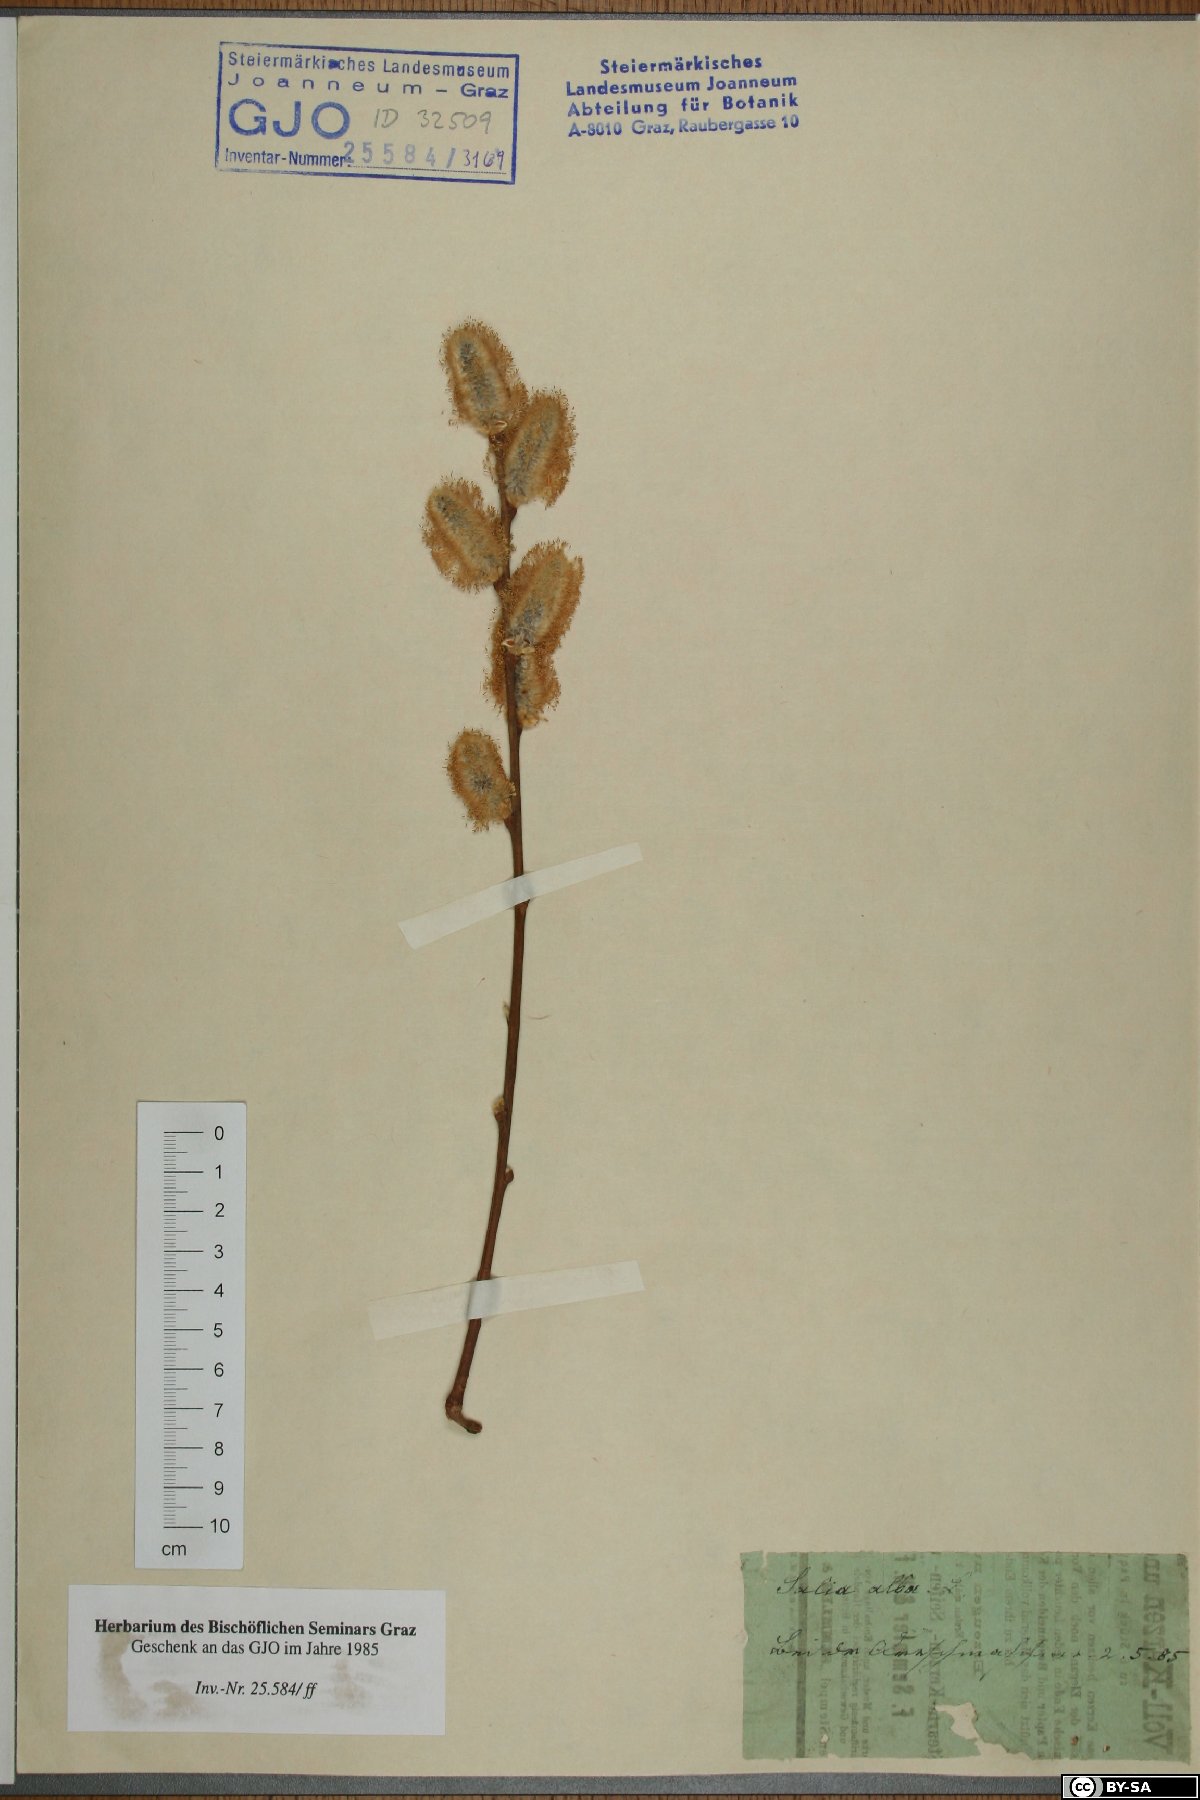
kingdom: Plantae
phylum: Tracheophyta
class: Magnoliopsida
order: Malpighiales
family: Salicaceae
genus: Salix
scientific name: Salix alba
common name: White willow
